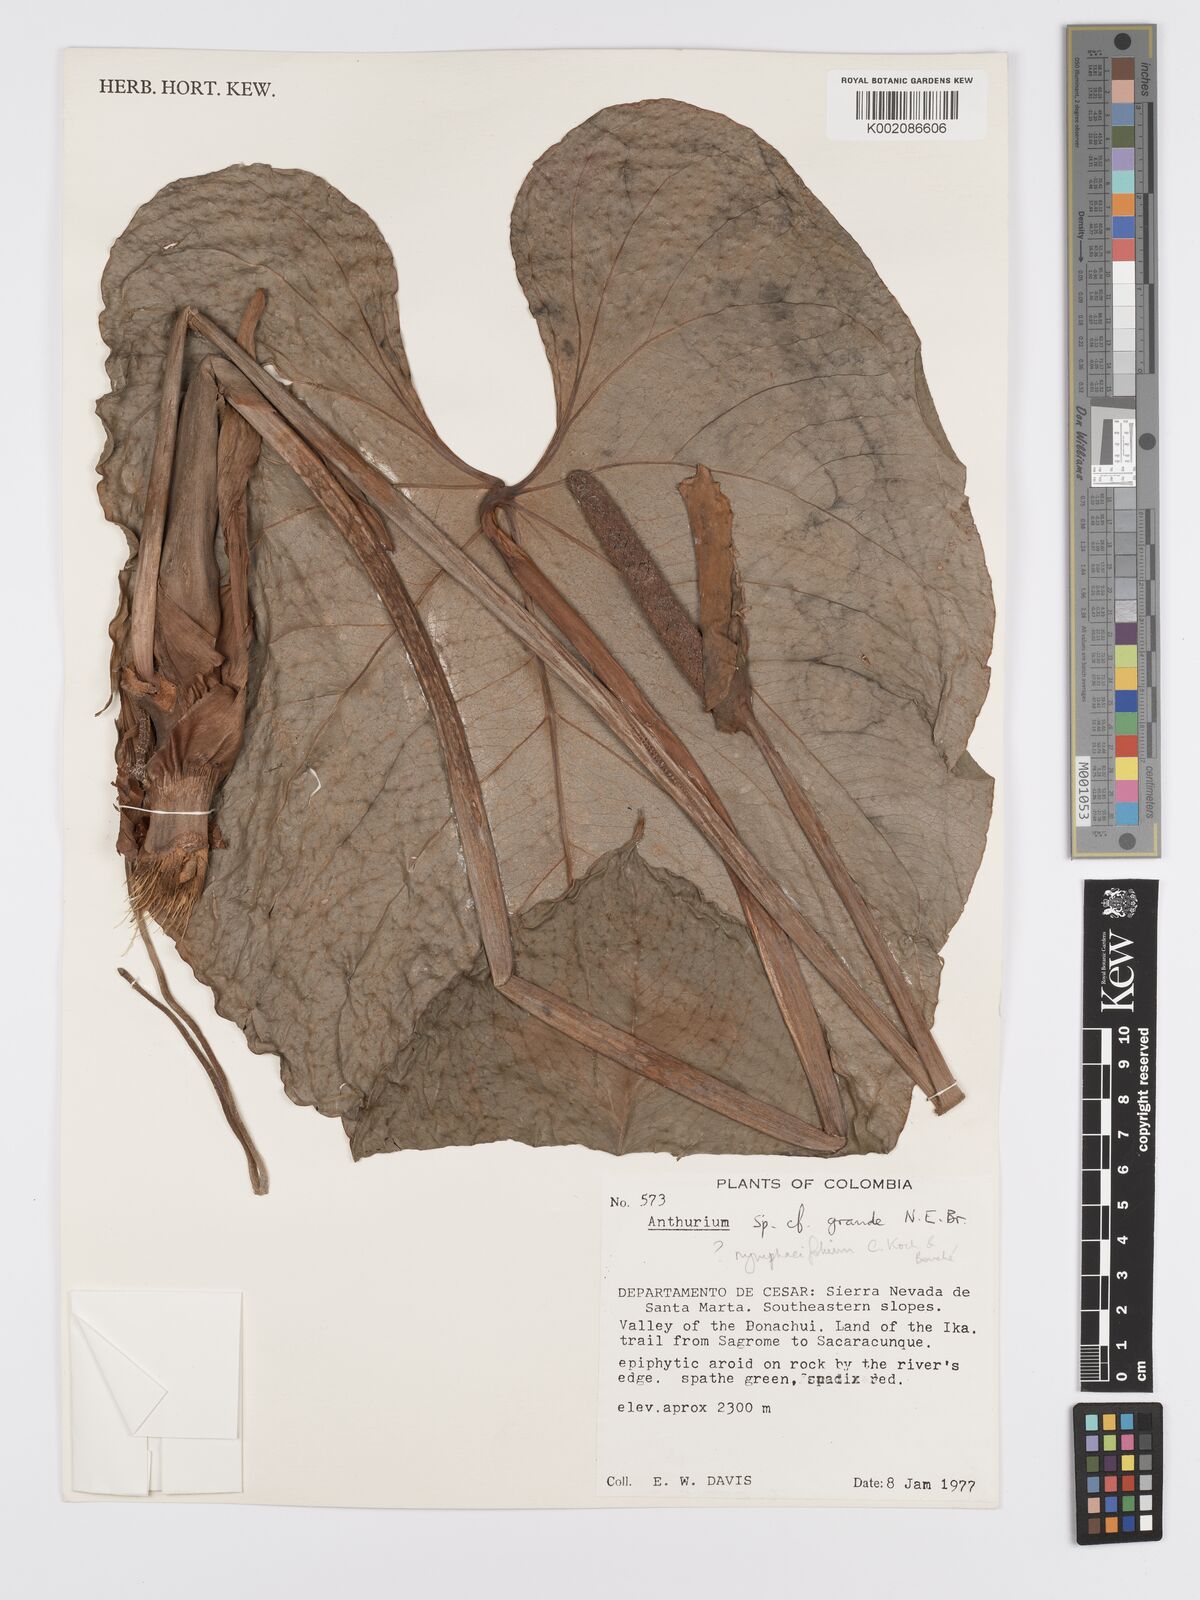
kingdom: Plantae
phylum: Tracheophyta
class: Liliopsida
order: Alismatales
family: Araceae
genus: Anthurium
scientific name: Anthurium nymphaeifolium
